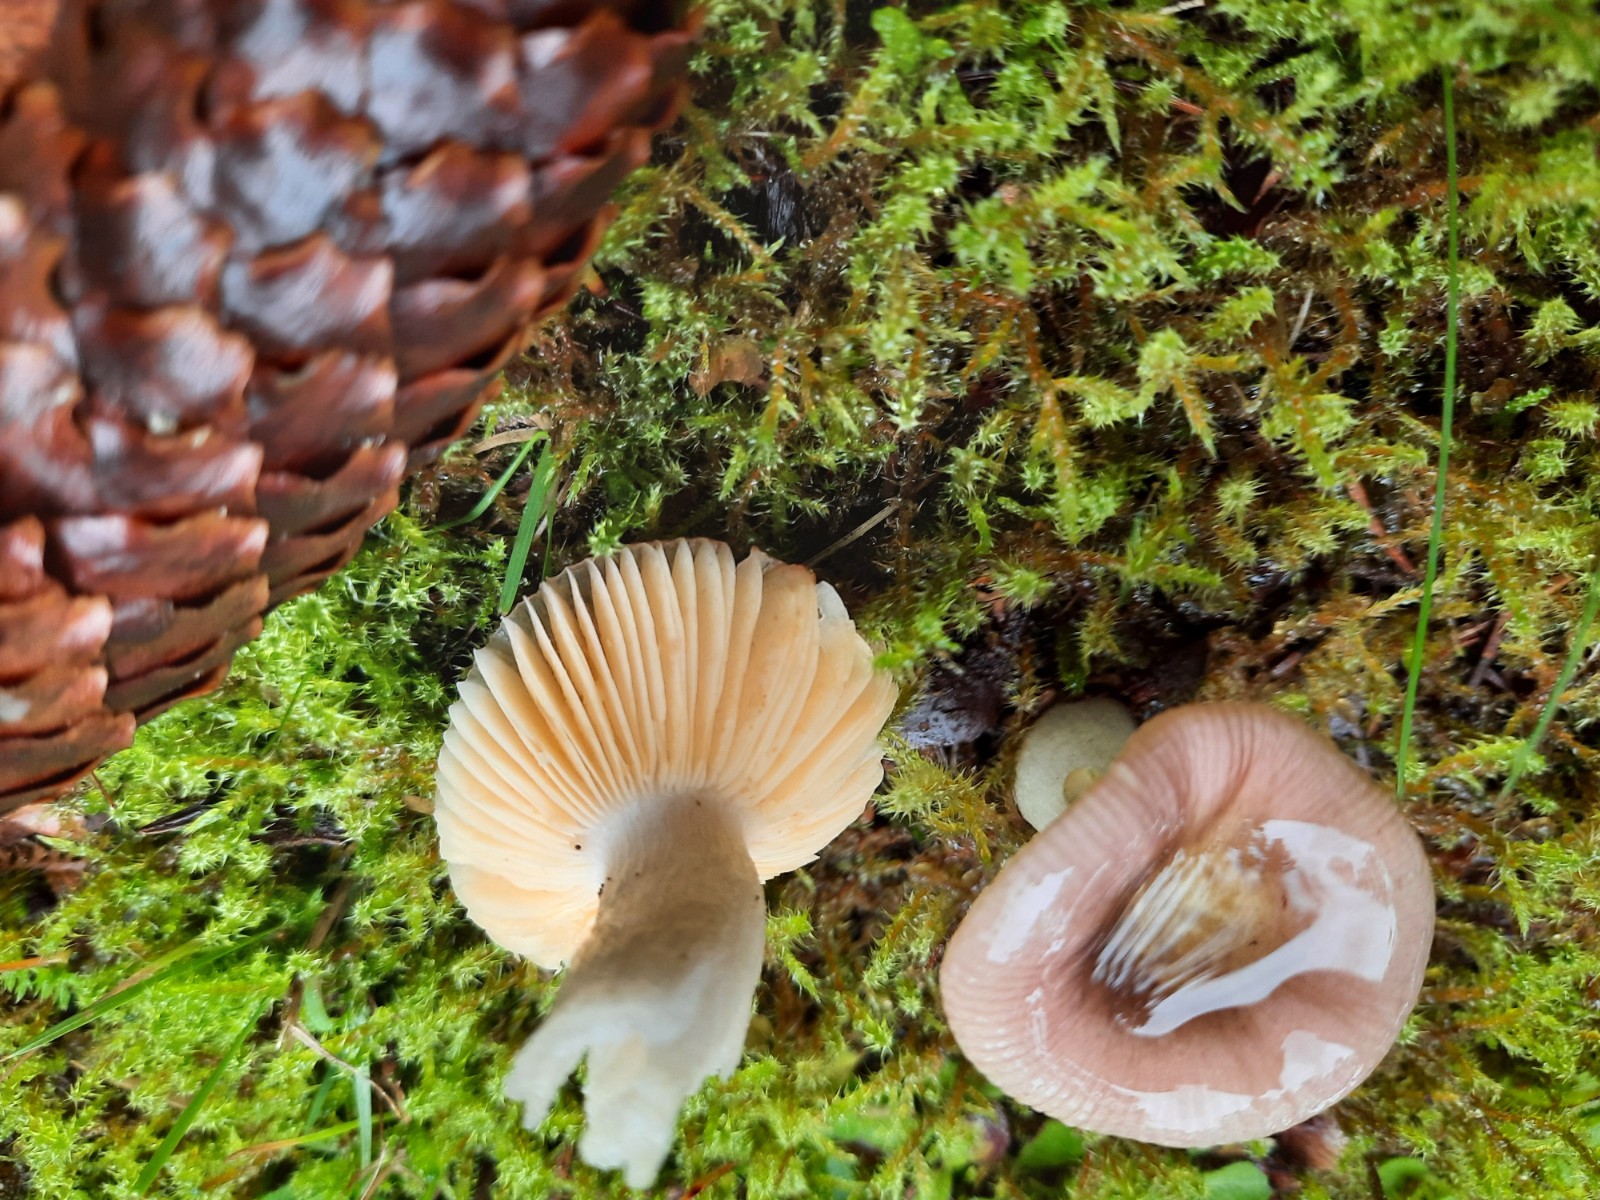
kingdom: Fungi
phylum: Basidiomycota
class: Agaricomycetes
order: Russulales
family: Russulaceae
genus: Russula
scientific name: Russula nauseosa
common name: spinkel skørhat
